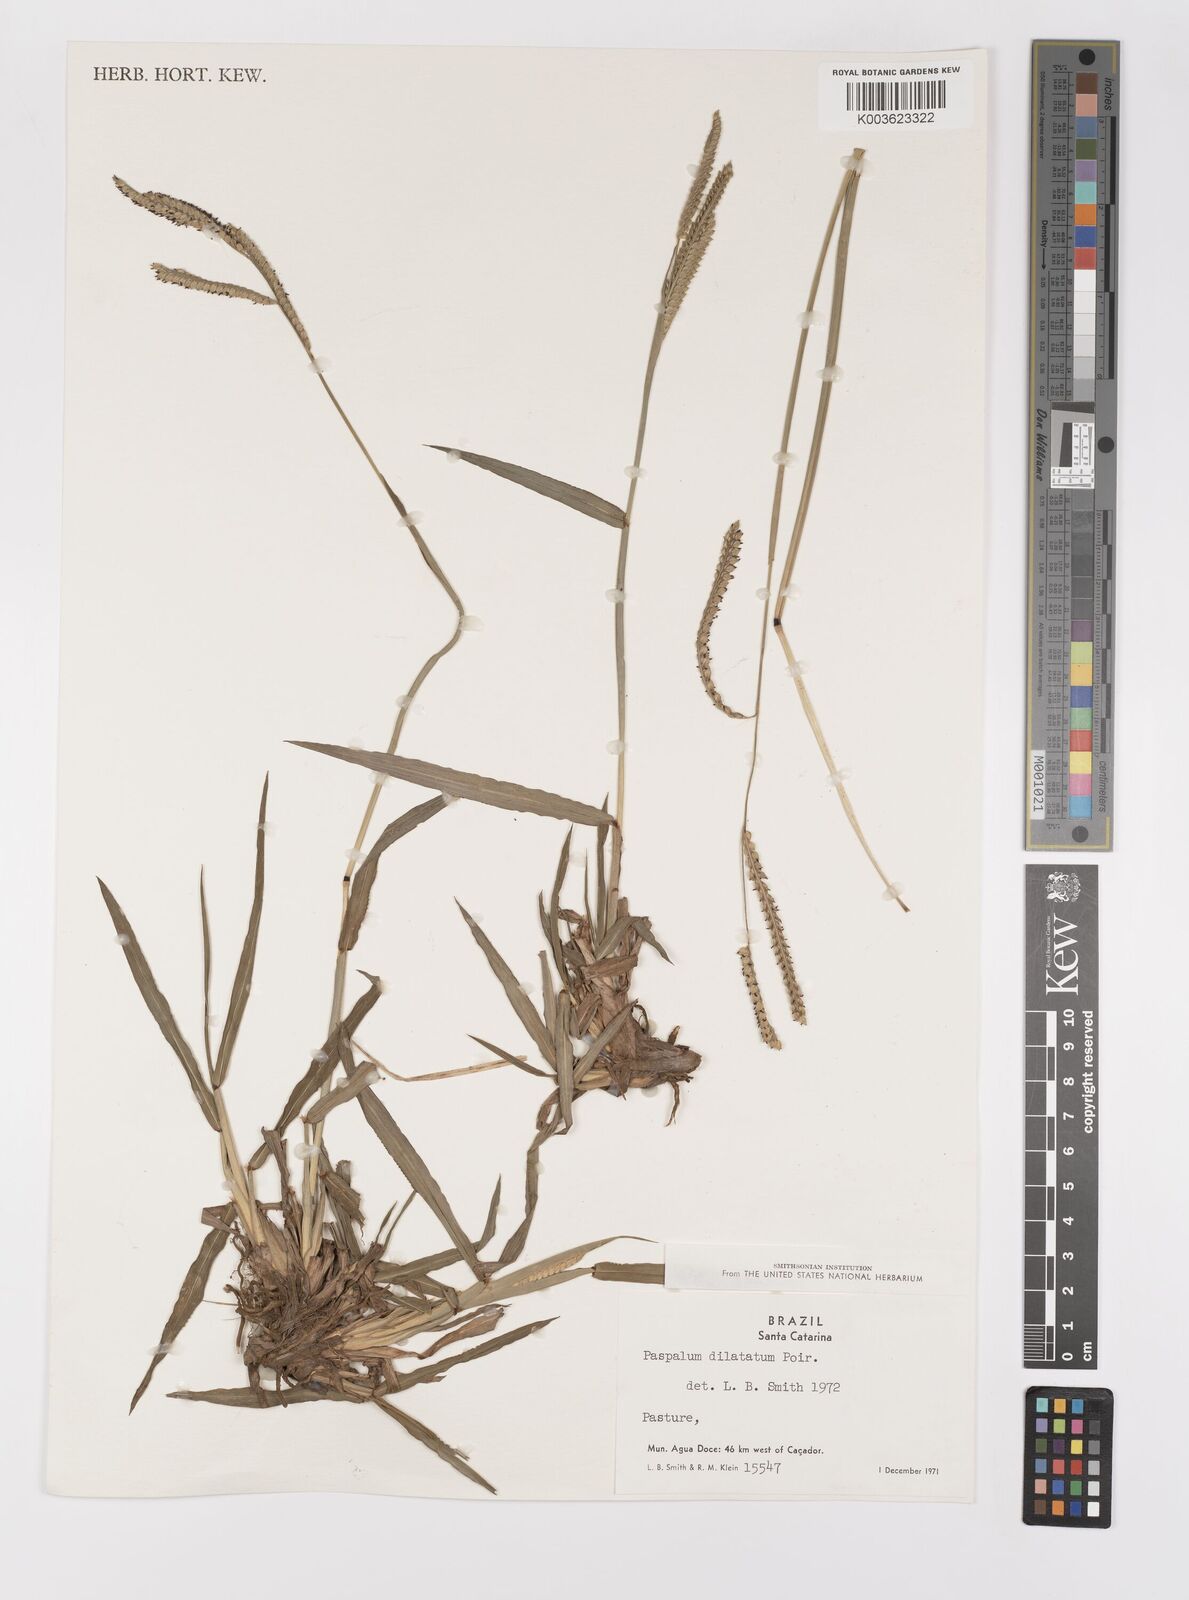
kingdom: Plantae
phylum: Tracheophyta
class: Liliopsida
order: Poales
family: Poaceae
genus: Paspalum
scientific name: Paspalum dilatatum
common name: Dallisgrass
